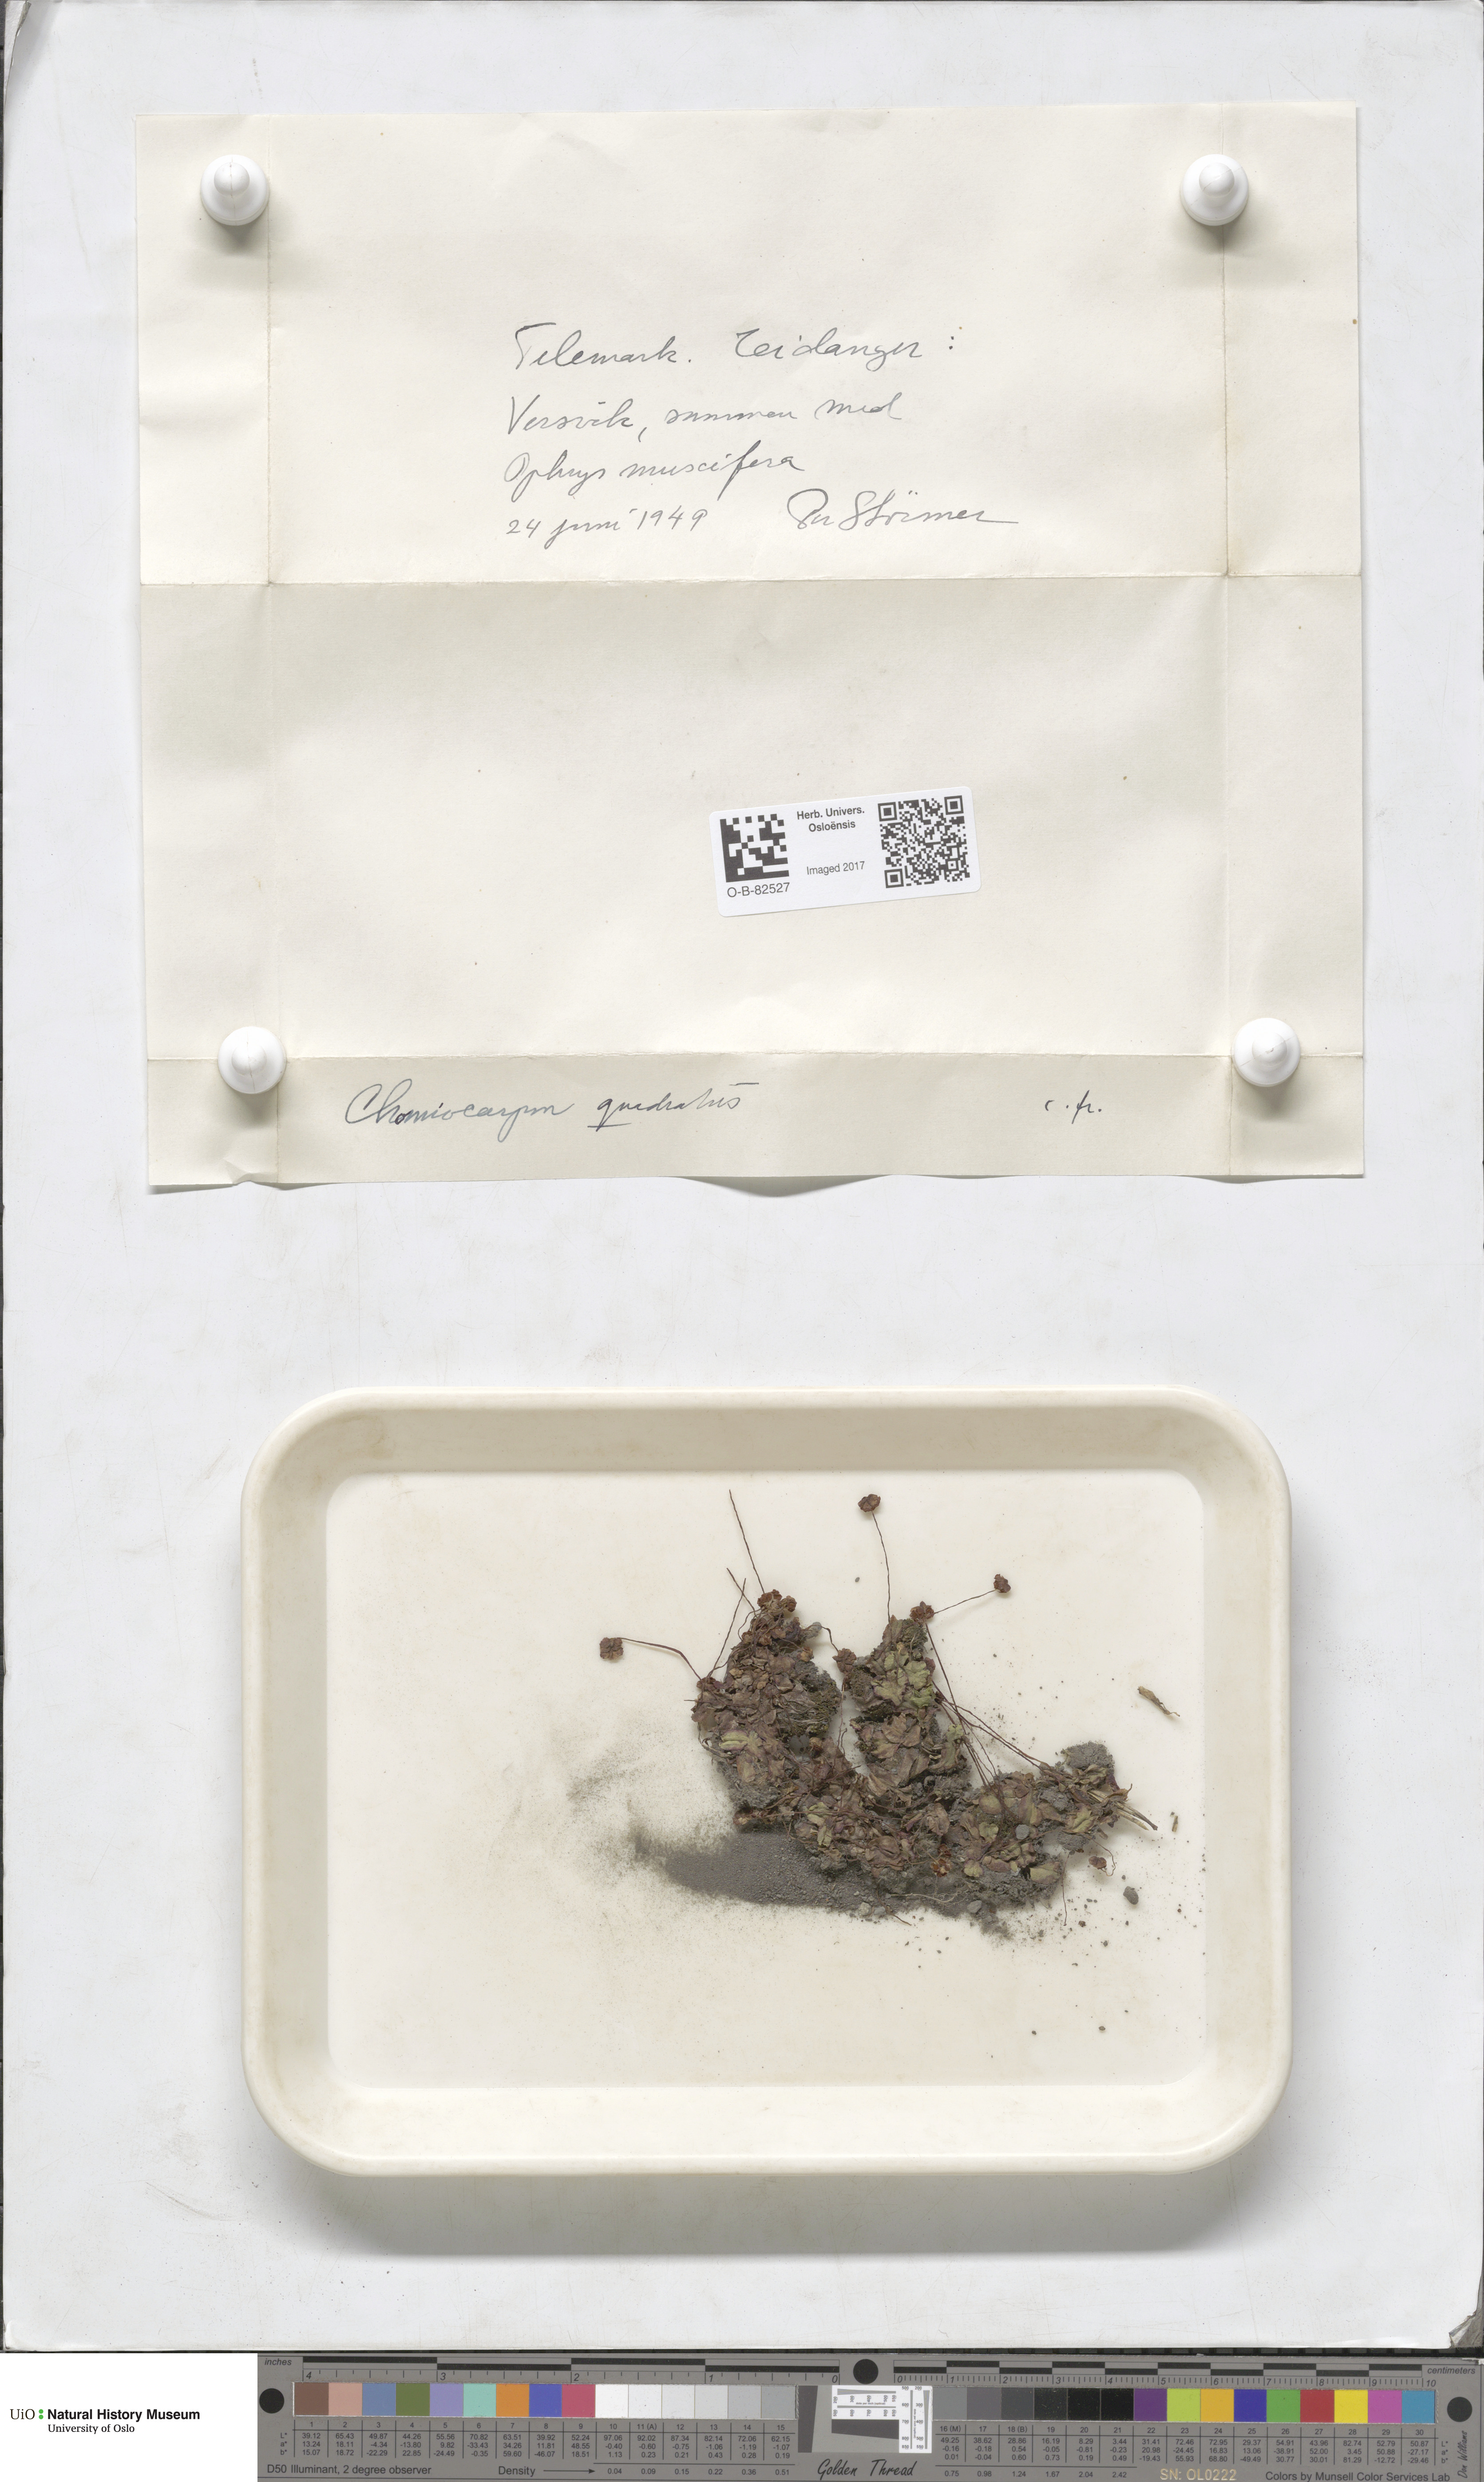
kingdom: Plantae
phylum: Marchantiophyta
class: Marchantiopsida
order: Marchantiales
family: Marchantiaceae
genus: Marchantia
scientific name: Marchantia quadrata
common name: Narrow mushroom-headed liverwort
